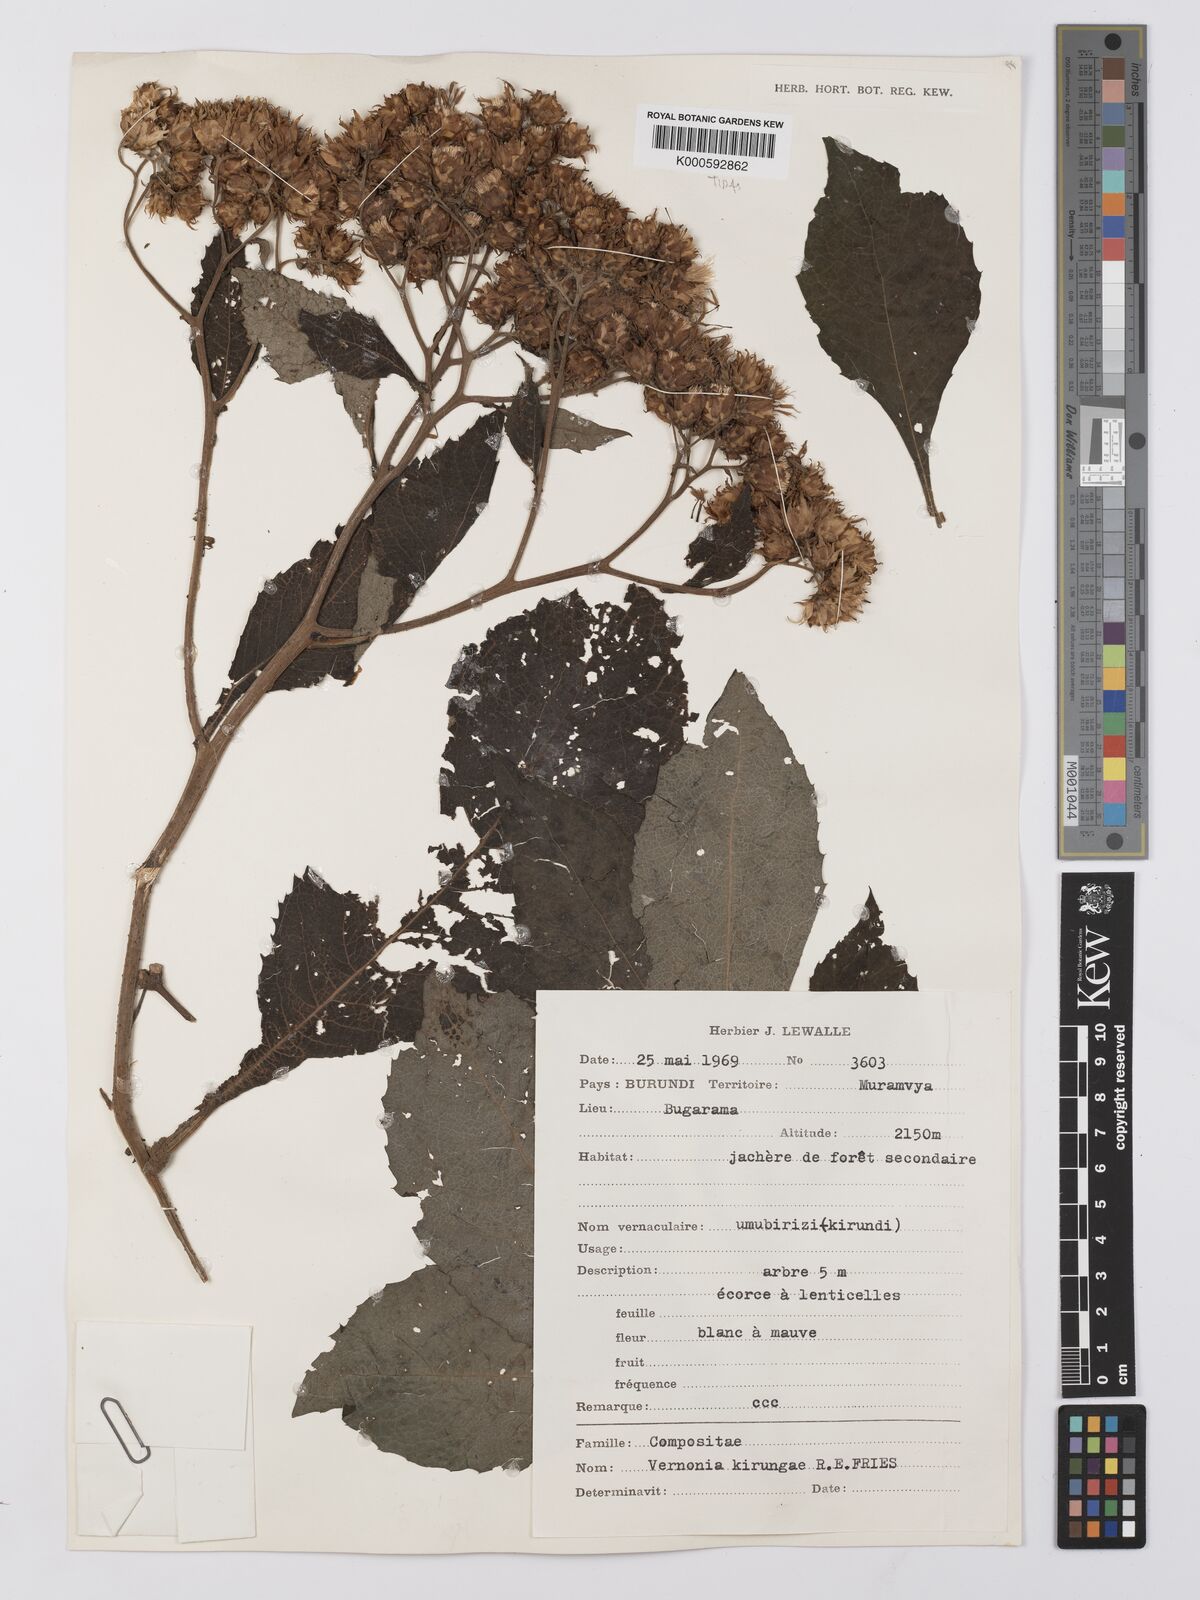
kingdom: Plantae
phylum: Tracheophyta
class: Magnoliopsida
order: Asterales
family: Asteraceae
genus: Baccharoides
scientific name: Baccharoides kirungae
